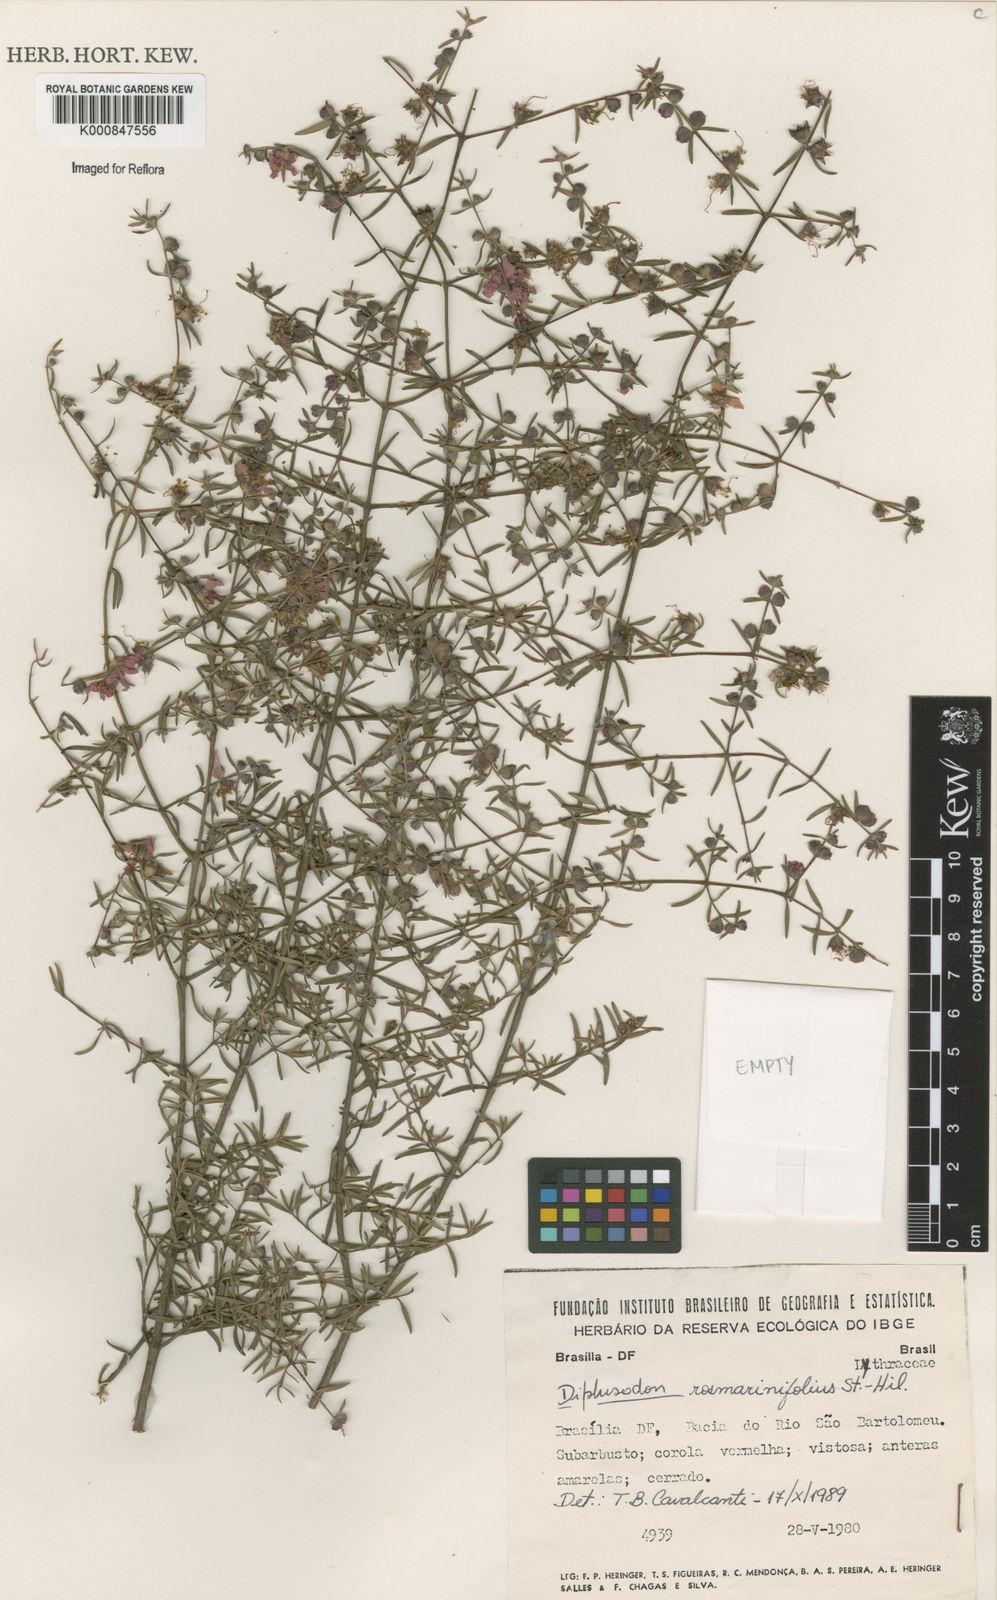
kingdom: Plantae
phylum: Tracheophyta
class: Magnoliopsida
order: Myrtales
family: Lythraceae
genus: Diplusodon
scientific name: Diplusodon rosmarinifolius
